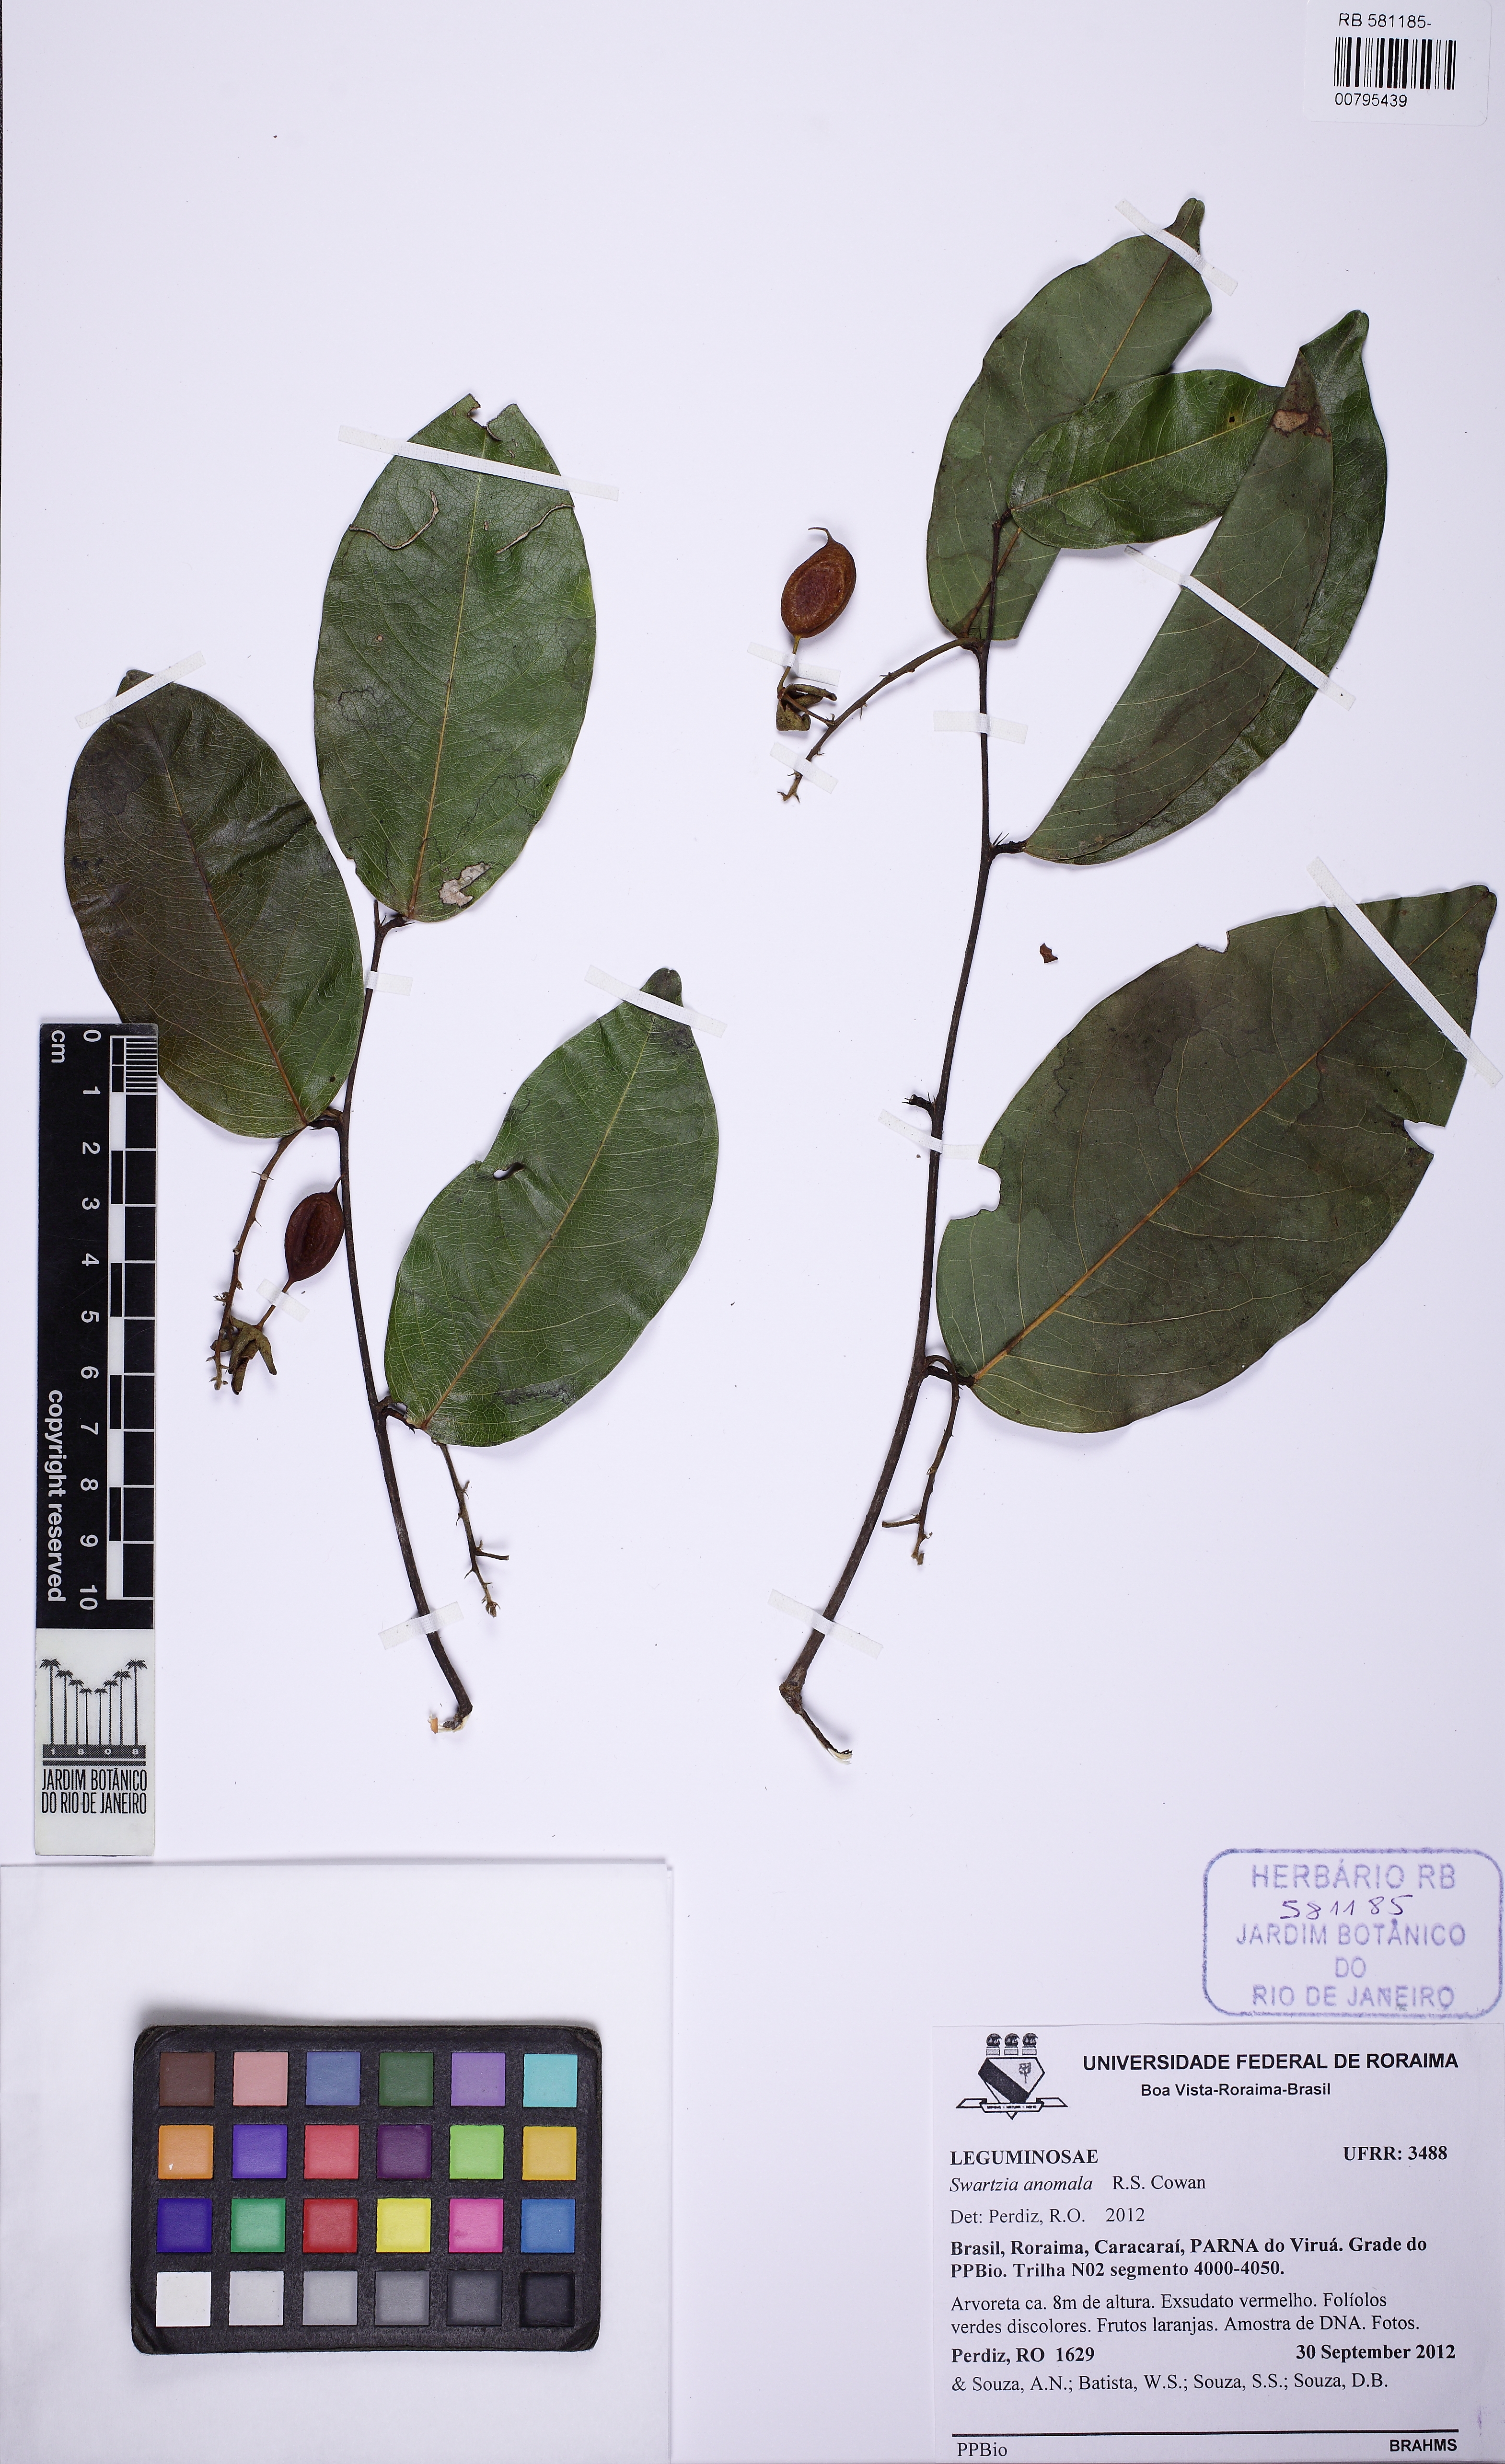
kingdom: Plantae
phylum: Tracheophyta
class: Magnoliopsida
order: Fabales
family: Fabaceae
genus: Swartzia
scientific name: Swartzia anomala
